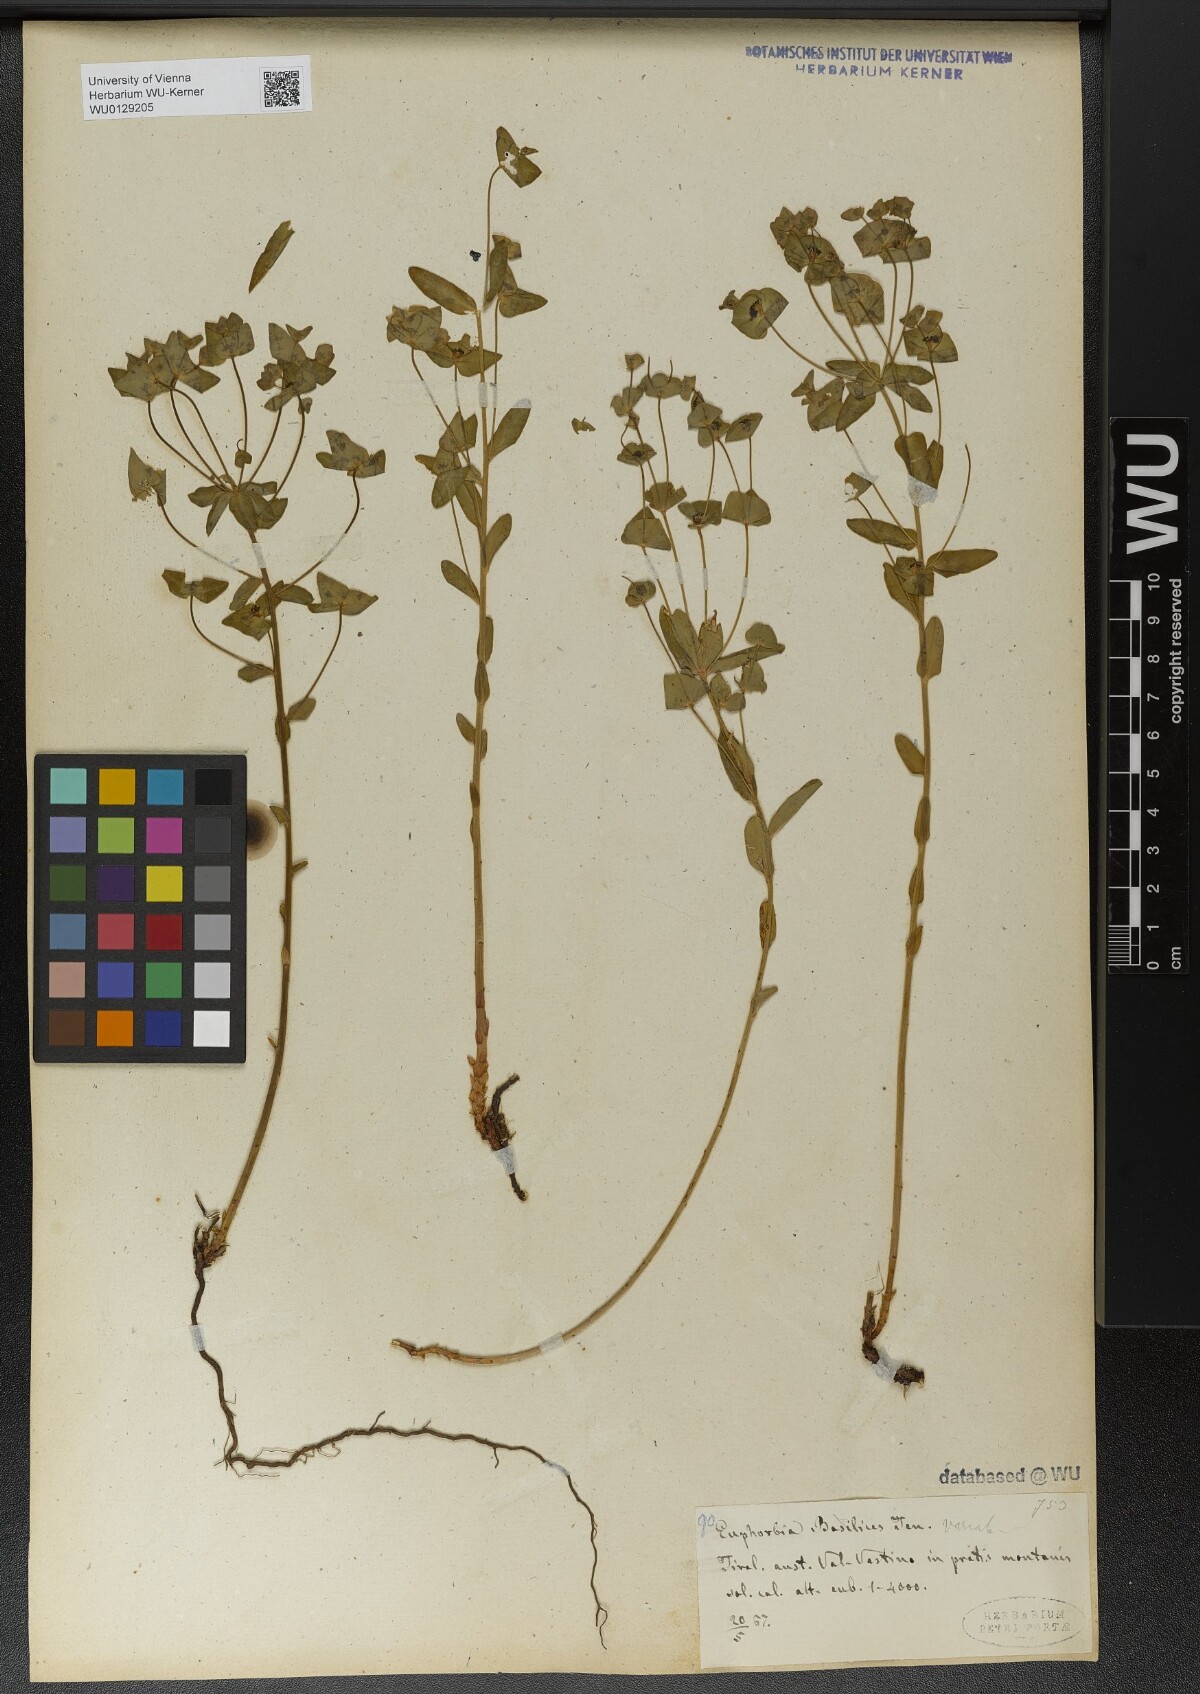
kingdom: Plantae
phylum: Tracheophyta
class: Magnoliopsida
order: Malpighiales
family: Euphorbiaceae
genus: Euphorbia
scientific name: Euphorbia variabilis
